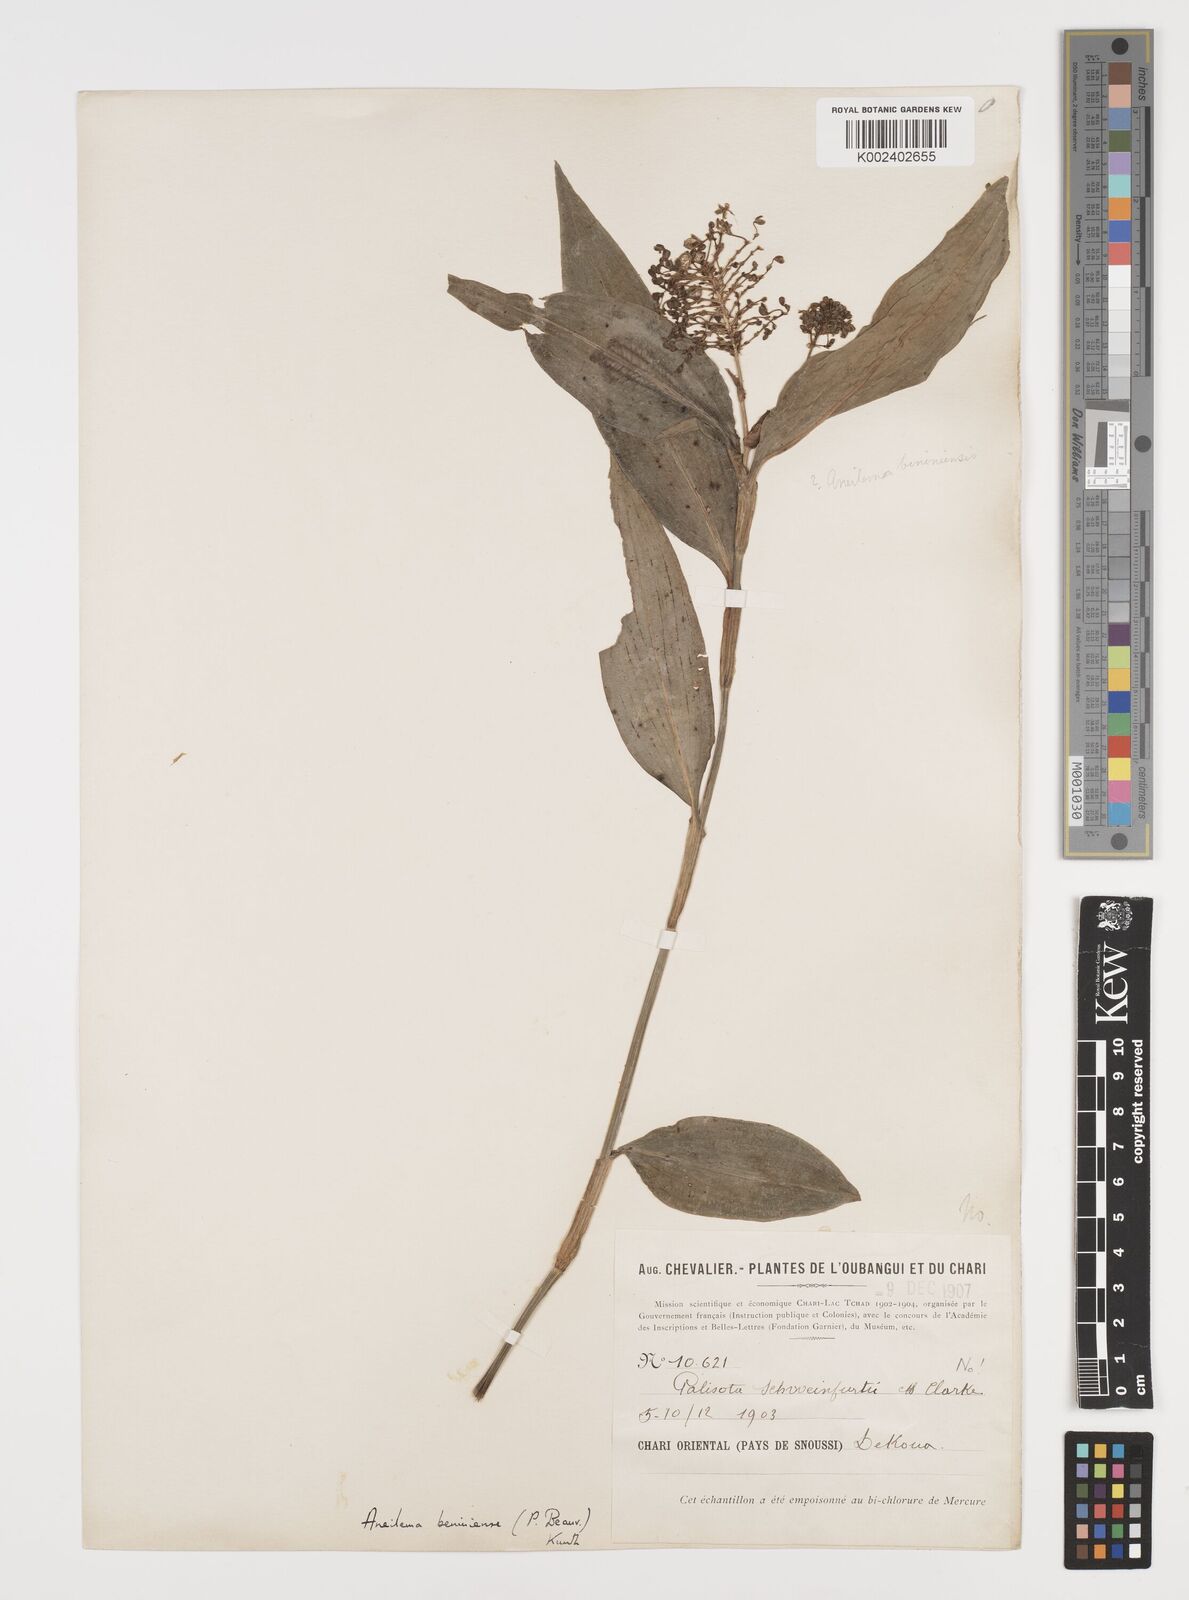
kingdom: Plantae
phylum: Tracheophyta
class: Liliopsida
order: Commelinales
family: Commelinaceae
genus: Aneilema
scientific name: Aneilema beniniense
